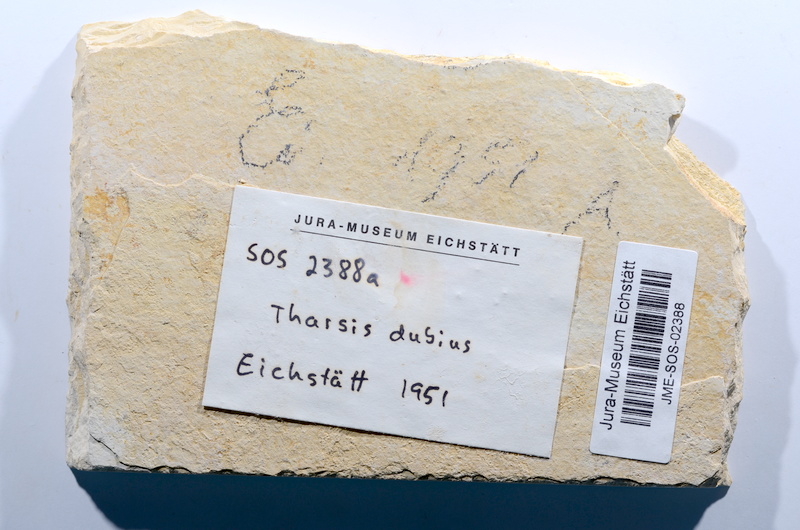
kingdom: Animalia
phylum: Chordata
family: Ascalaboidae
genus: Tharsis
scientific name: Tharsis dubius
